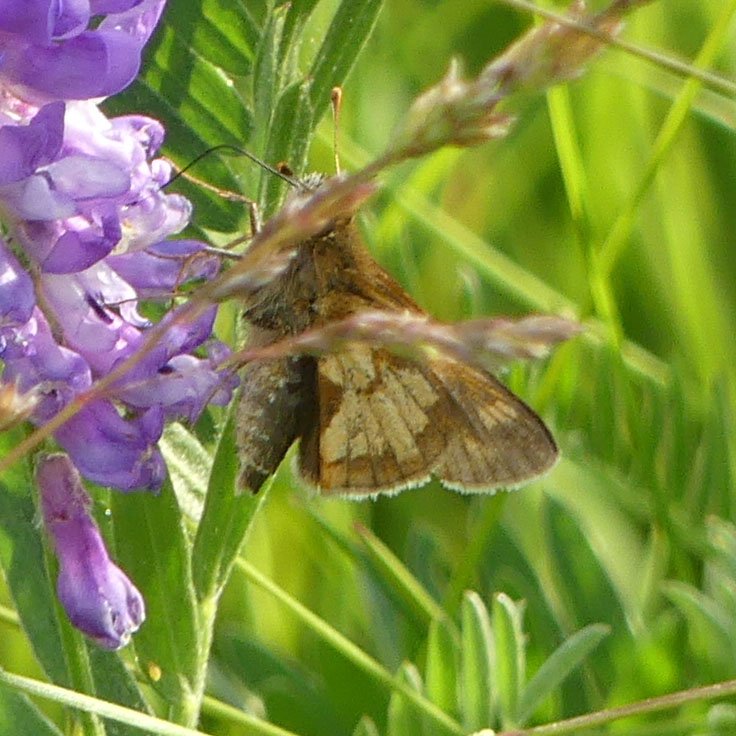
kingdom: Animalia
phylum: Arthropoda
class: Insecta
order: Lepidoptera
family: Hesperiidae
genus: Polites
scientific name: Polites coras
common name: Peck's Skipper
